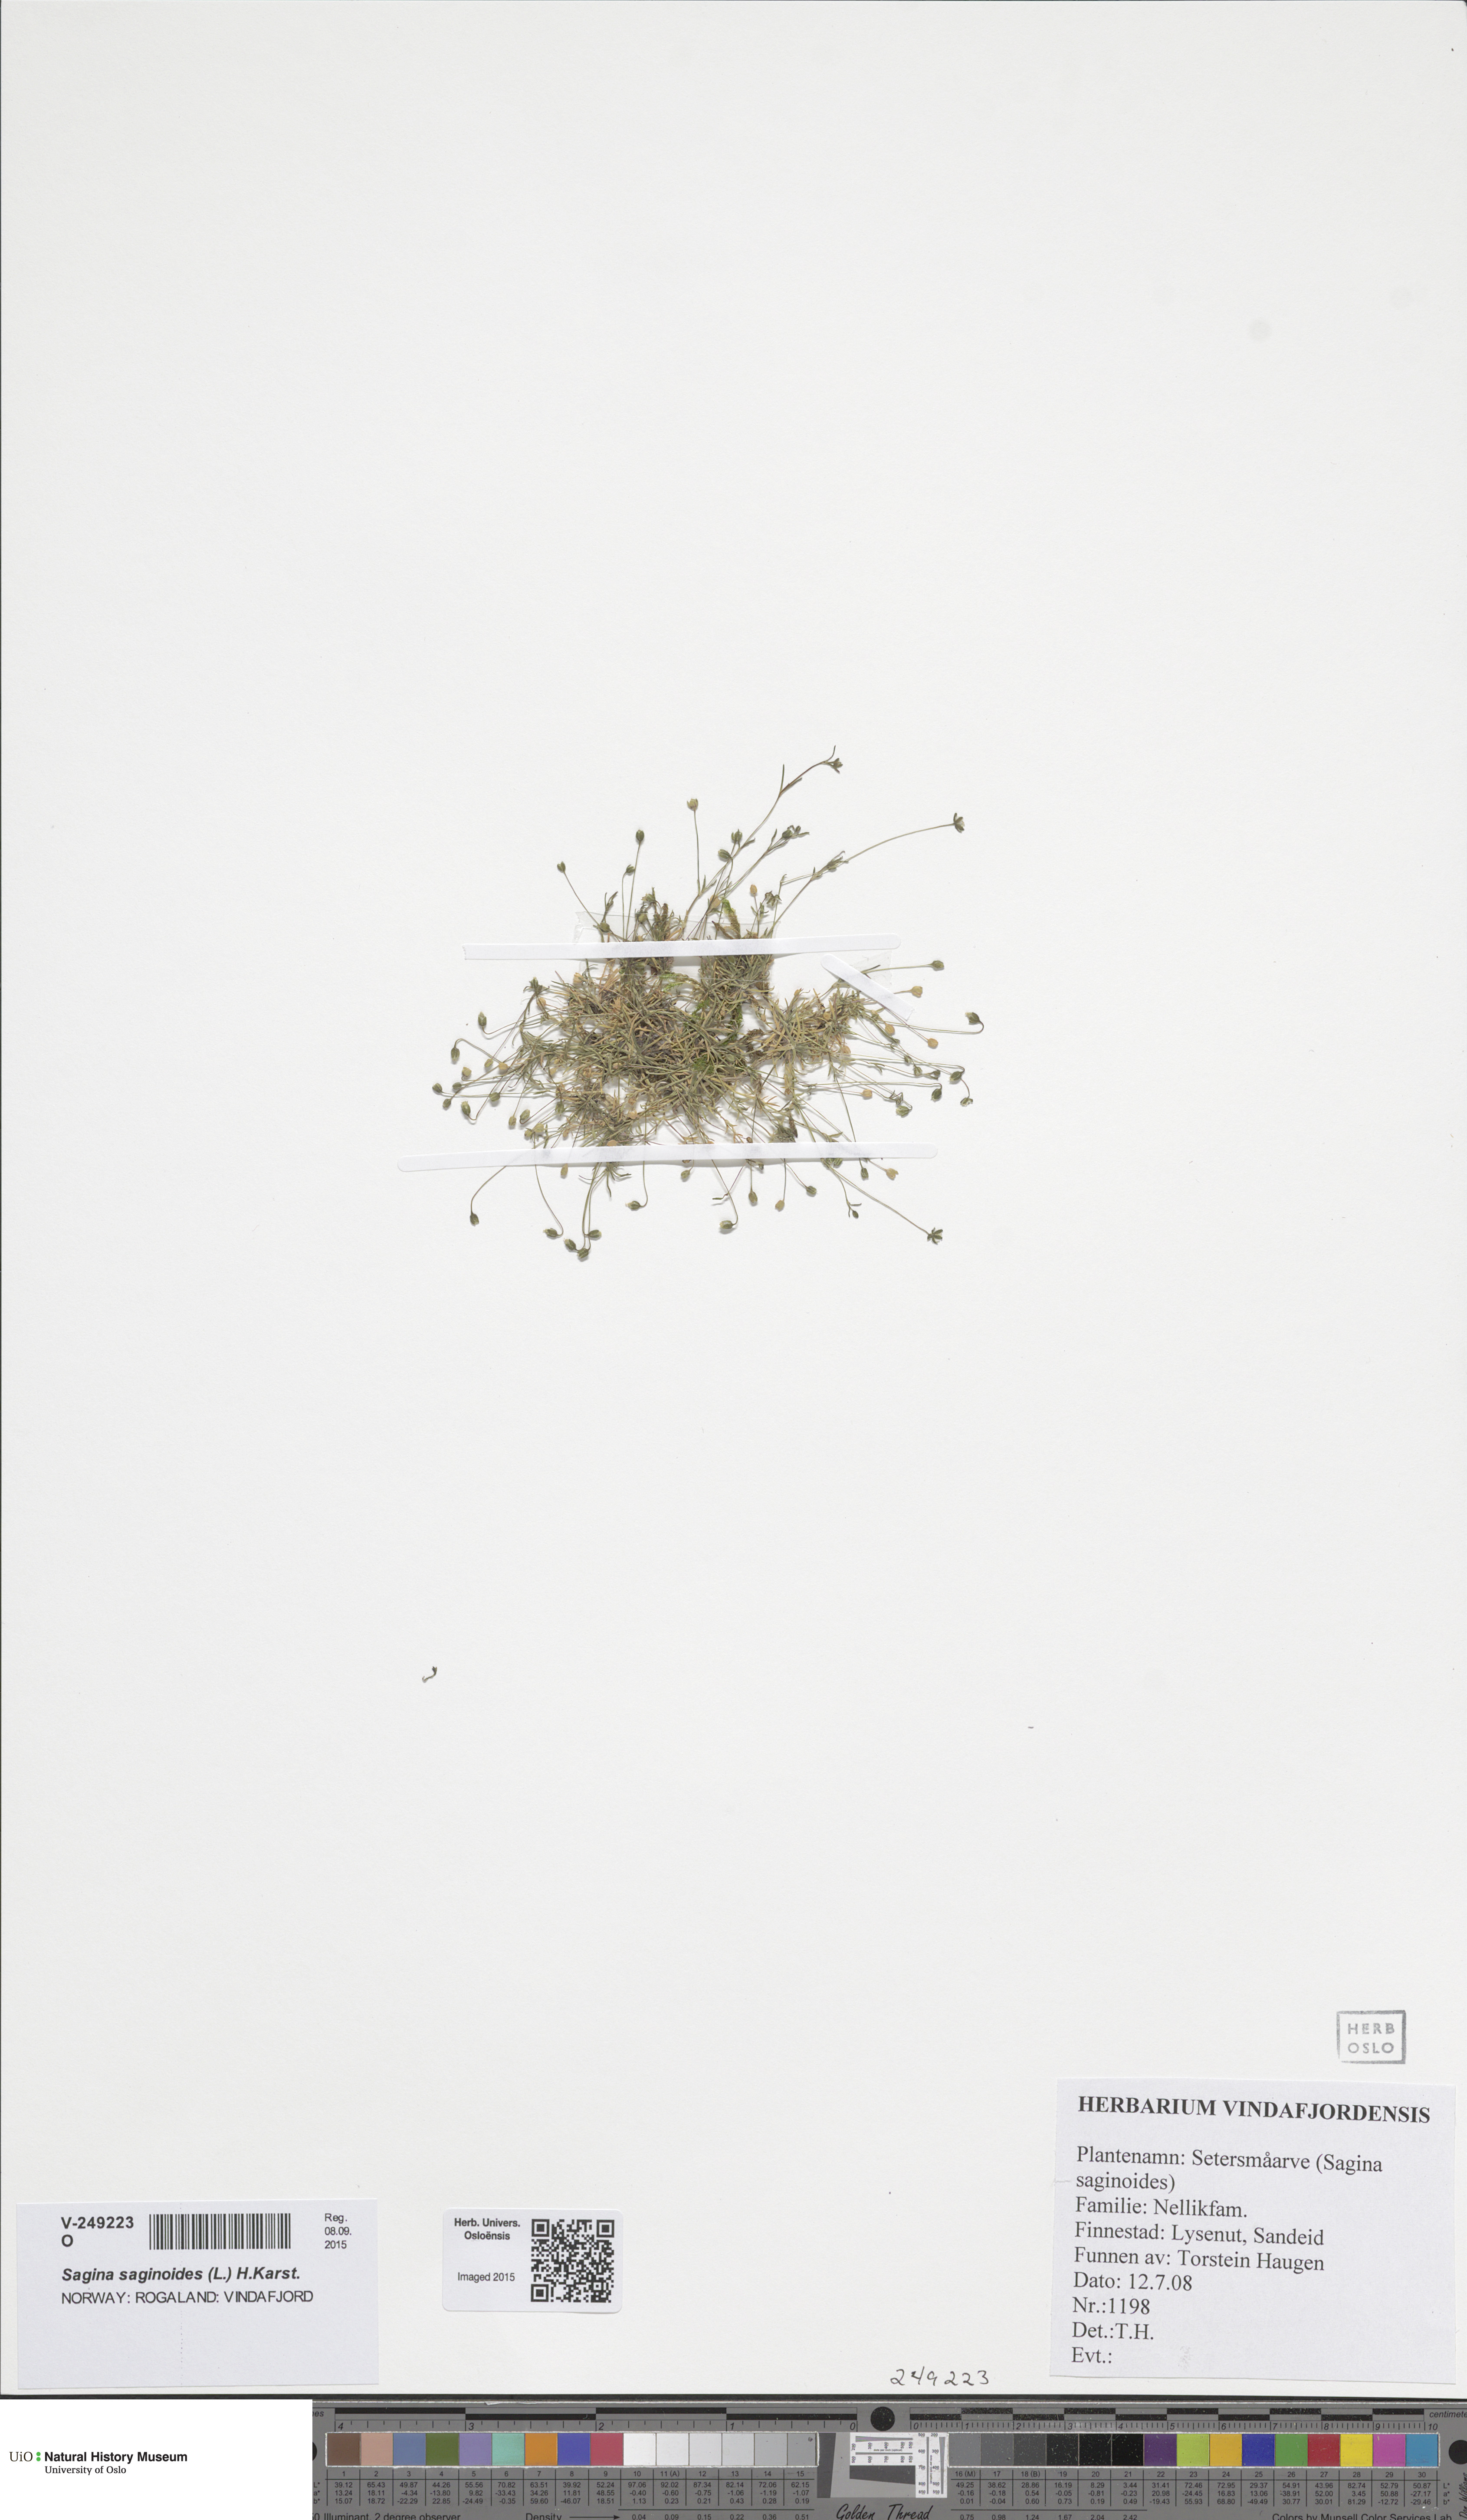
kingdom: Plantae
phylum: Tracheophyta
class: Magnoliopsida
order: Caryophyllales
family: Caryophyllaceae
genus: Sagina
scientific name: Sagina saginoides
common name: Alpine pearlwort
